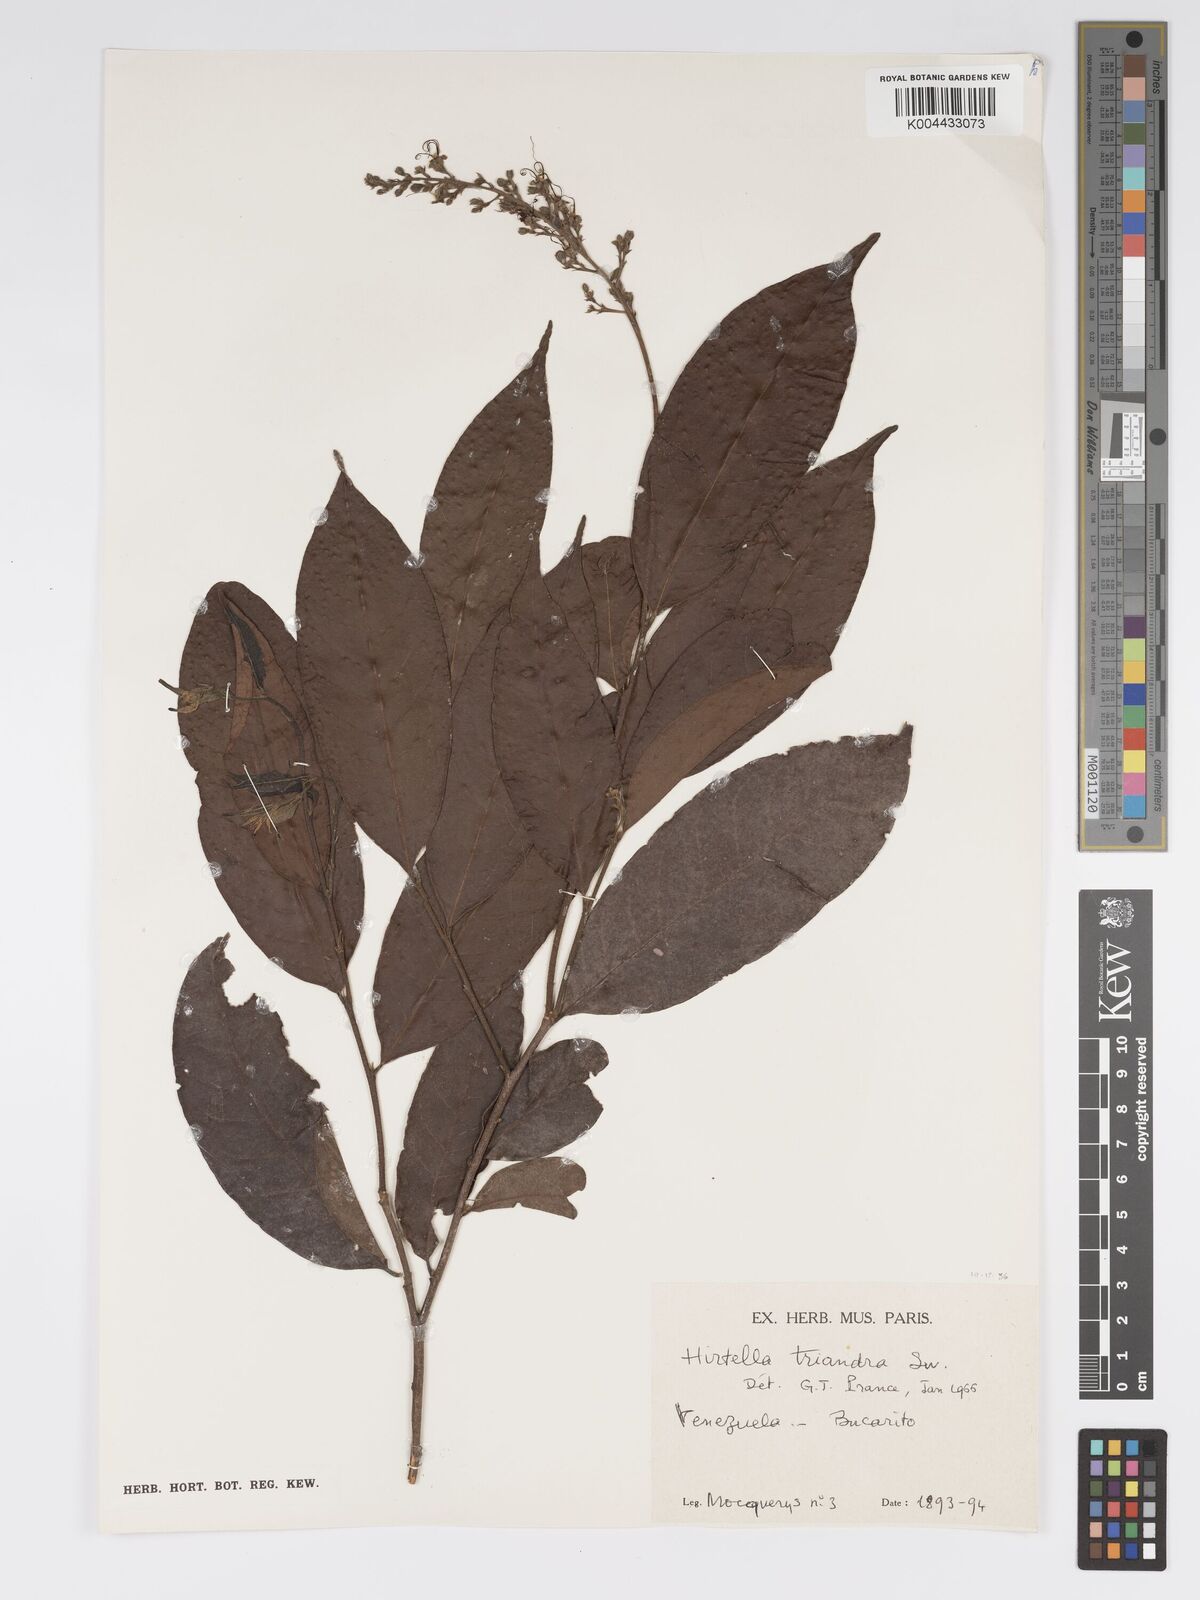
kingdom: Plantae
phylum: Tracheophyta
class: Magnoliopsida
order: Malpighiales
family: Chrysobalanaceae
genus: Hirtella
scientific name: Hirtella triandra
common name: Hairy plum
